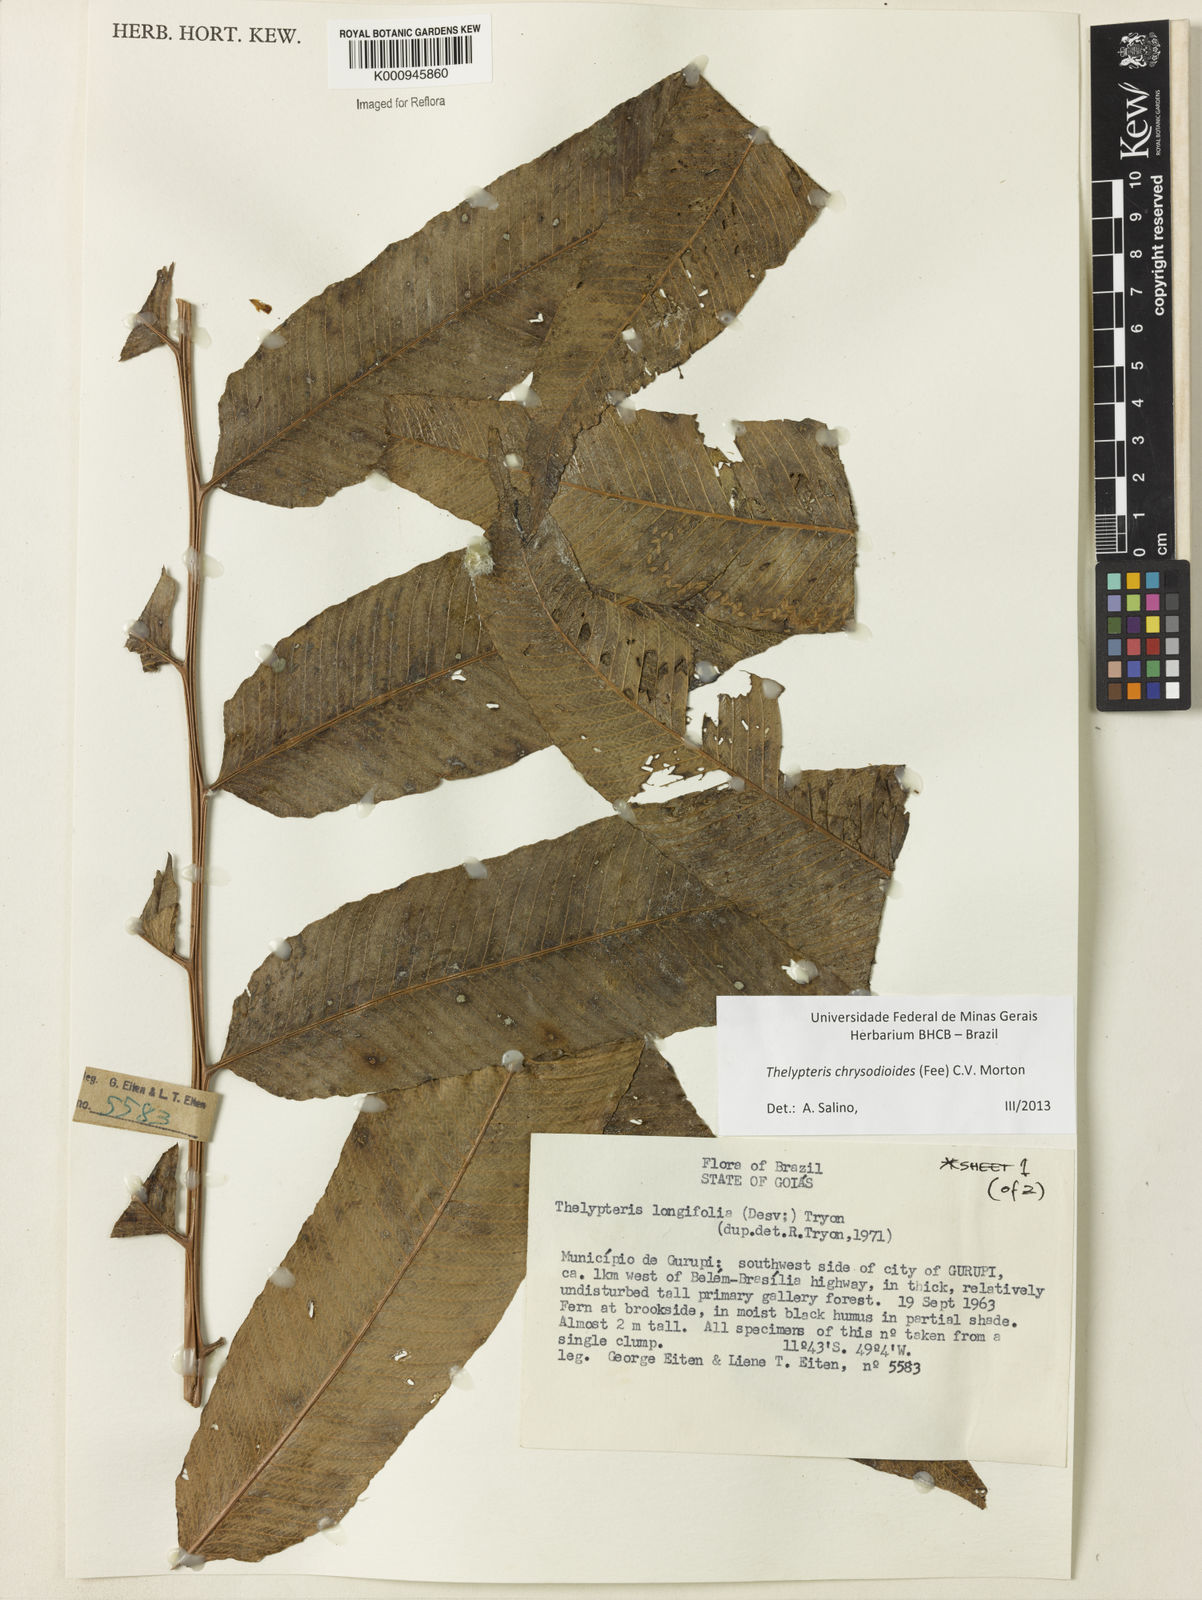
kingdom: Plantae
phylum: Tracheophyta
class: Polypodiopsida
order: Polypodiales
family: Thelypteridaceae
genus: Meniscium
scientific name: Meniscium
